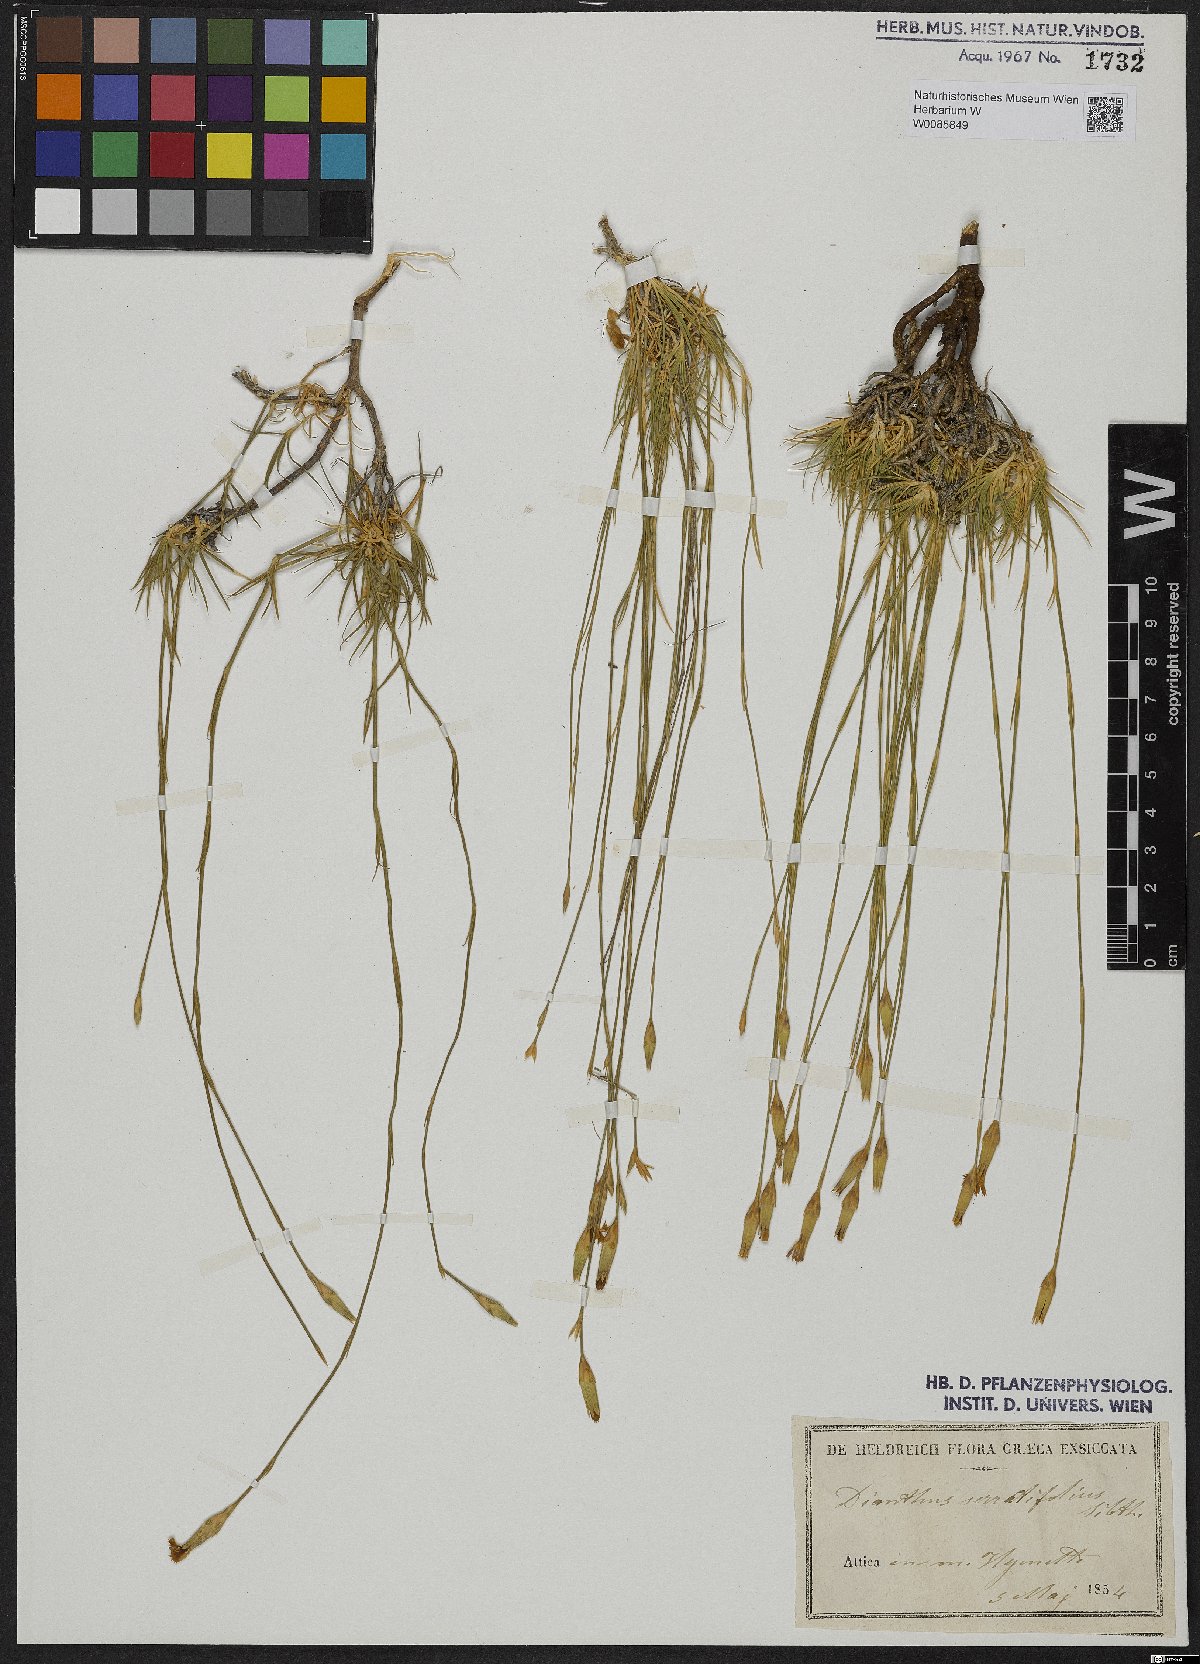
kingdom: Plantae
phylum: Tracheophyta
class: Magnoliopsida
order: Caryophyllales
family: Caryophyllaceae
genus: Dianthus
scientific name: Dianthus serratifolius
